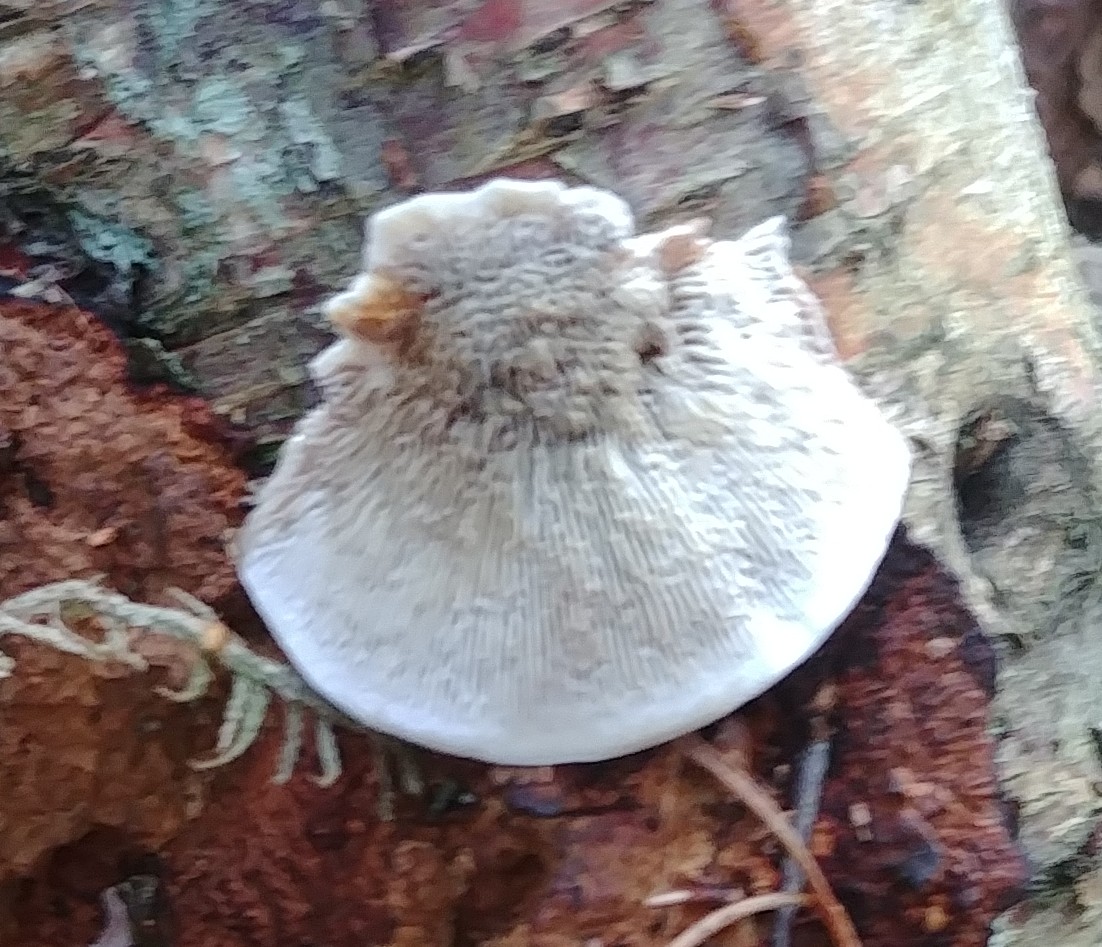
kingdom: Fungi
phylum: Basidiomycota
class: Agaricomycetes
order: Polyporales
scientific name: Polyporales
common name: poresvampordenen
